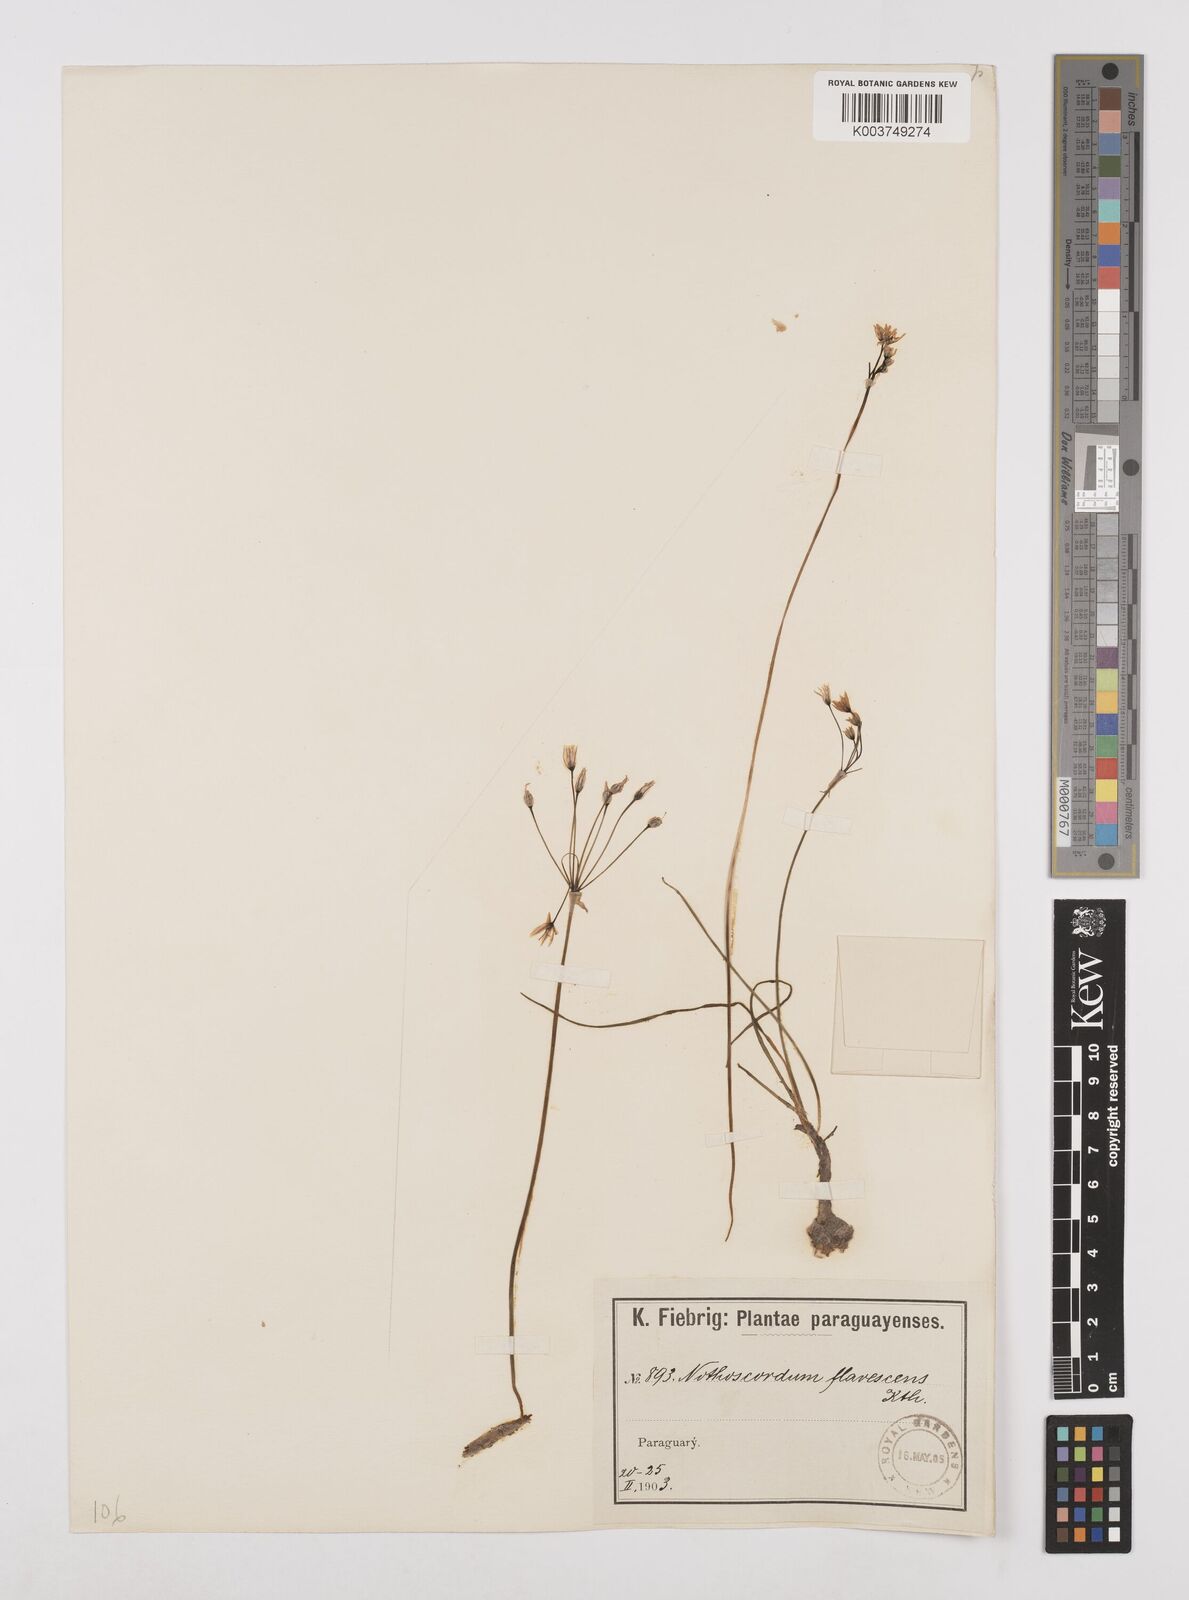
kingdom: Plantae
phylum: Tracheophyta
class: Liliopsida
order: Asparagales
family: Amaryllidaceae
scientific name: Amaryllidaceae
